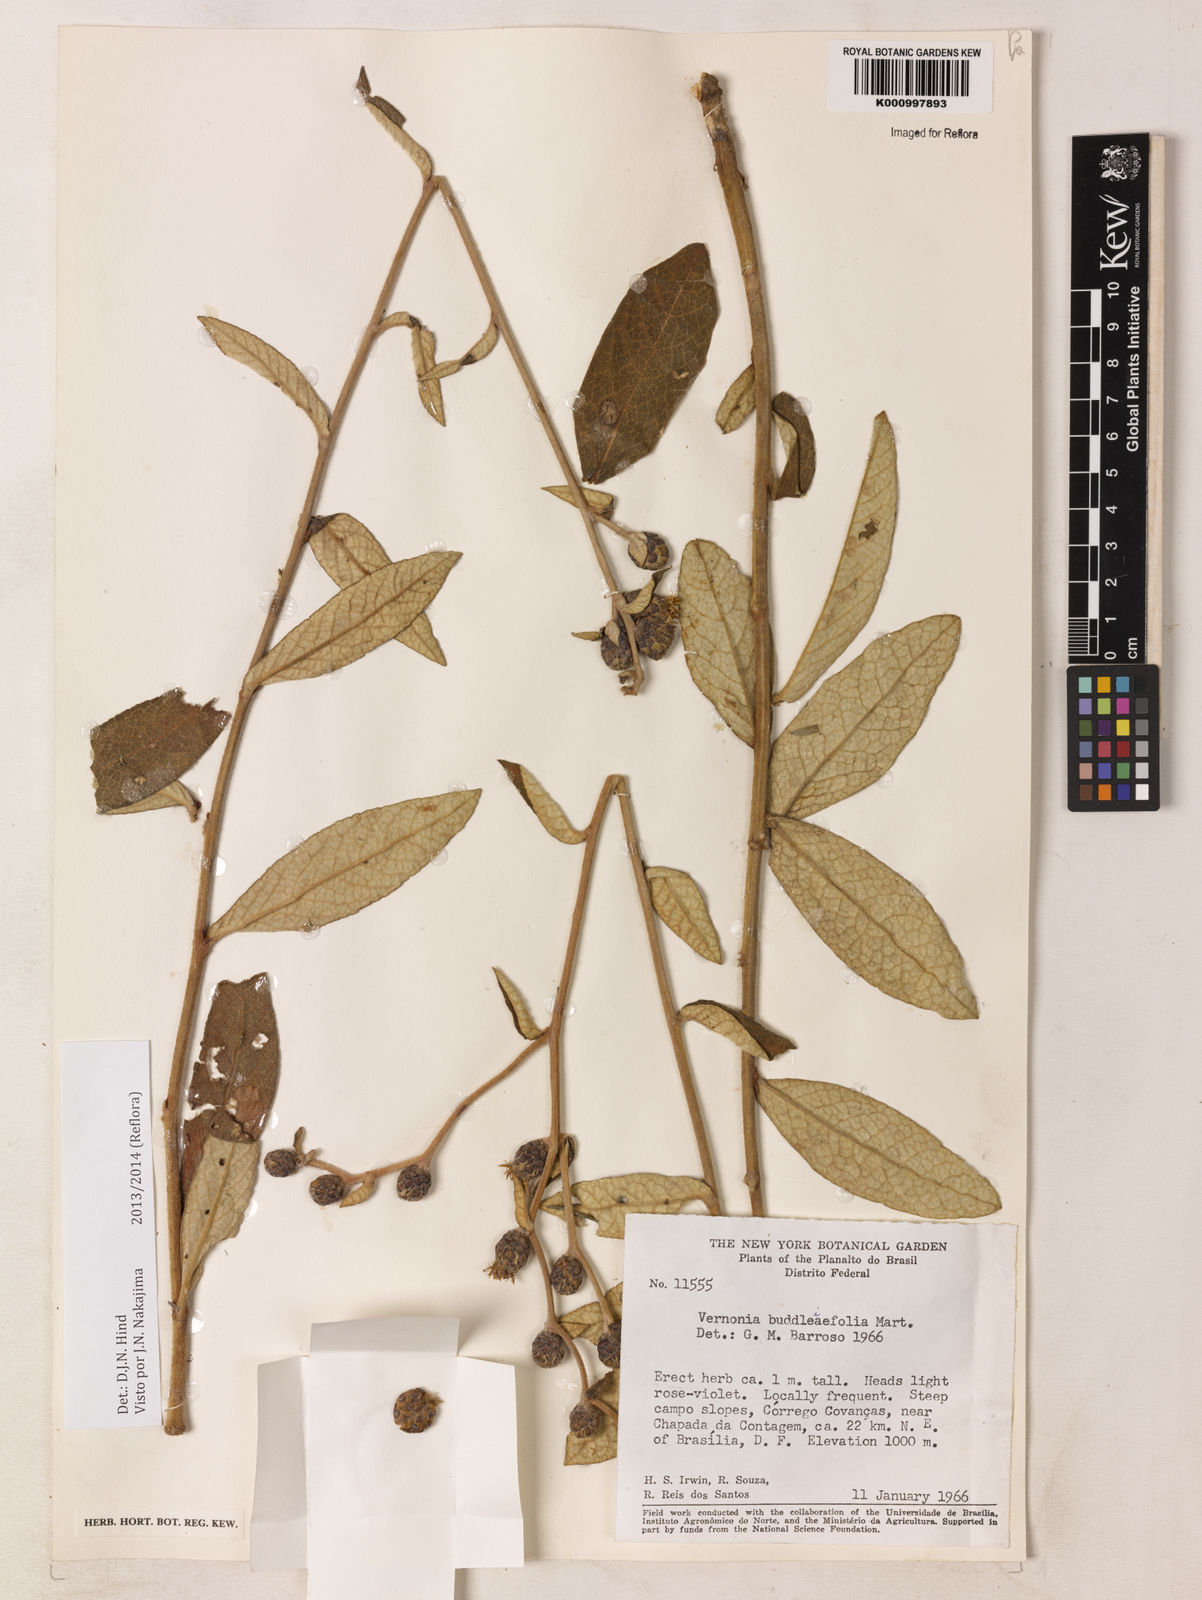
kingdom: Plantae
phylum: Tracheophyta
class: Magnoliopsida
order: Asterales
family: Asteraceae
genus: Lessingianthus
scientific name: Lessingianthus buddlejifolius
